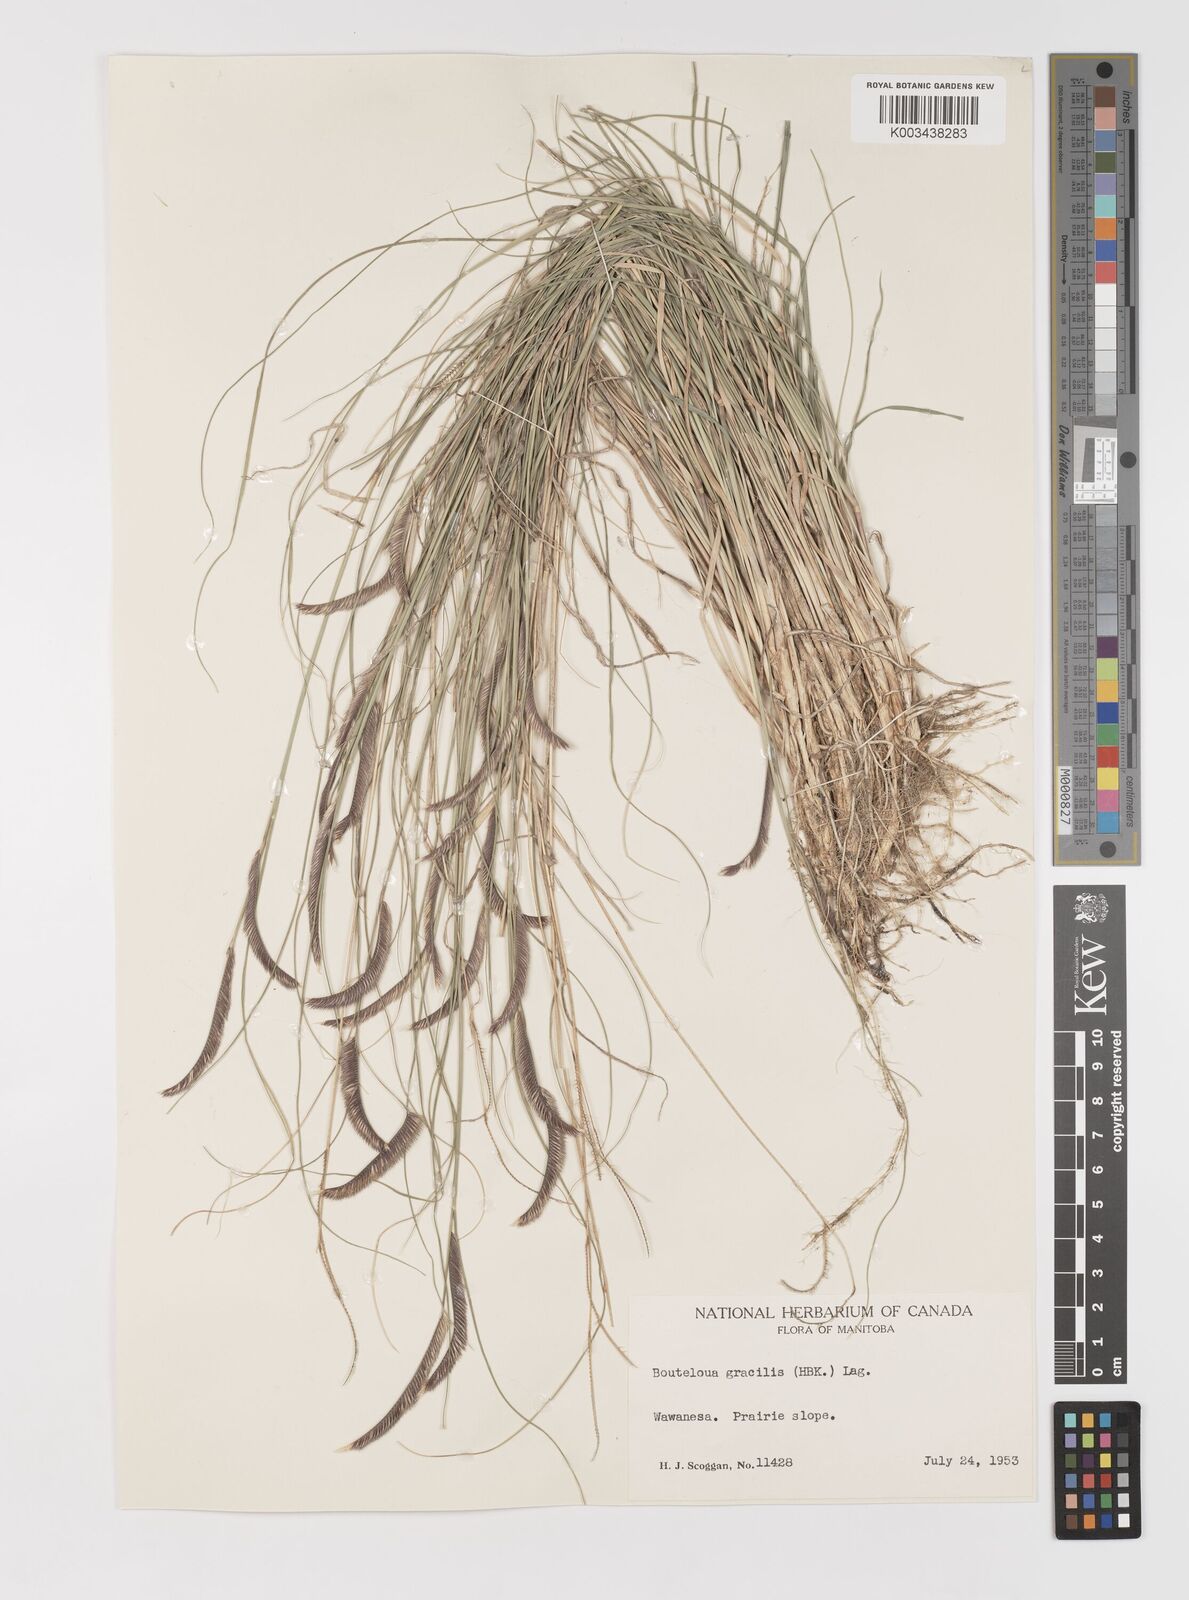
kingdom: Plantae
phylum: Tracheophyta
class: Liliopsida
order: Poales
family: Poaceae
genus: Bouteloua
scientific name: Bouteloua gracilis
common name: Blue grama
